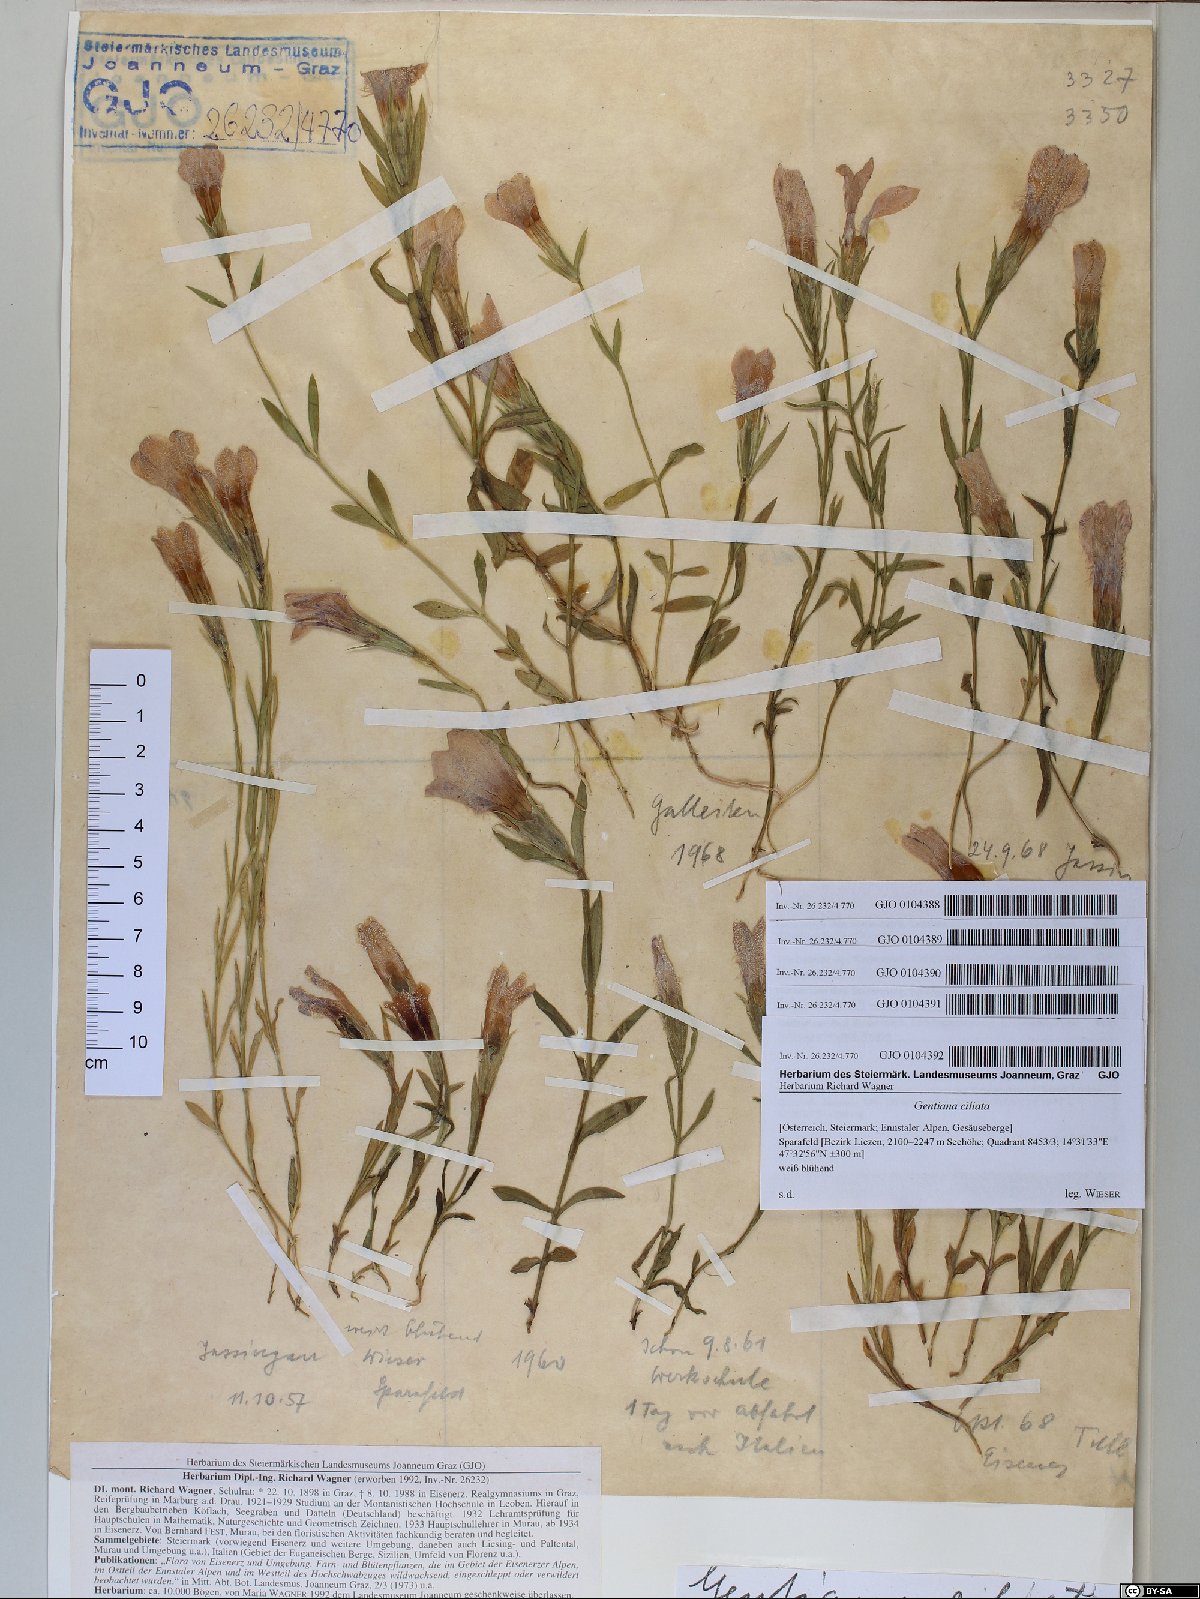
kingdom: Plantae
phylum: Tracheophyta
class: Magnoliopsida
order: Gentianales
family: Gentianaceae
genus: Gentianopsis
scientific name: Gentianopsis ciliata
